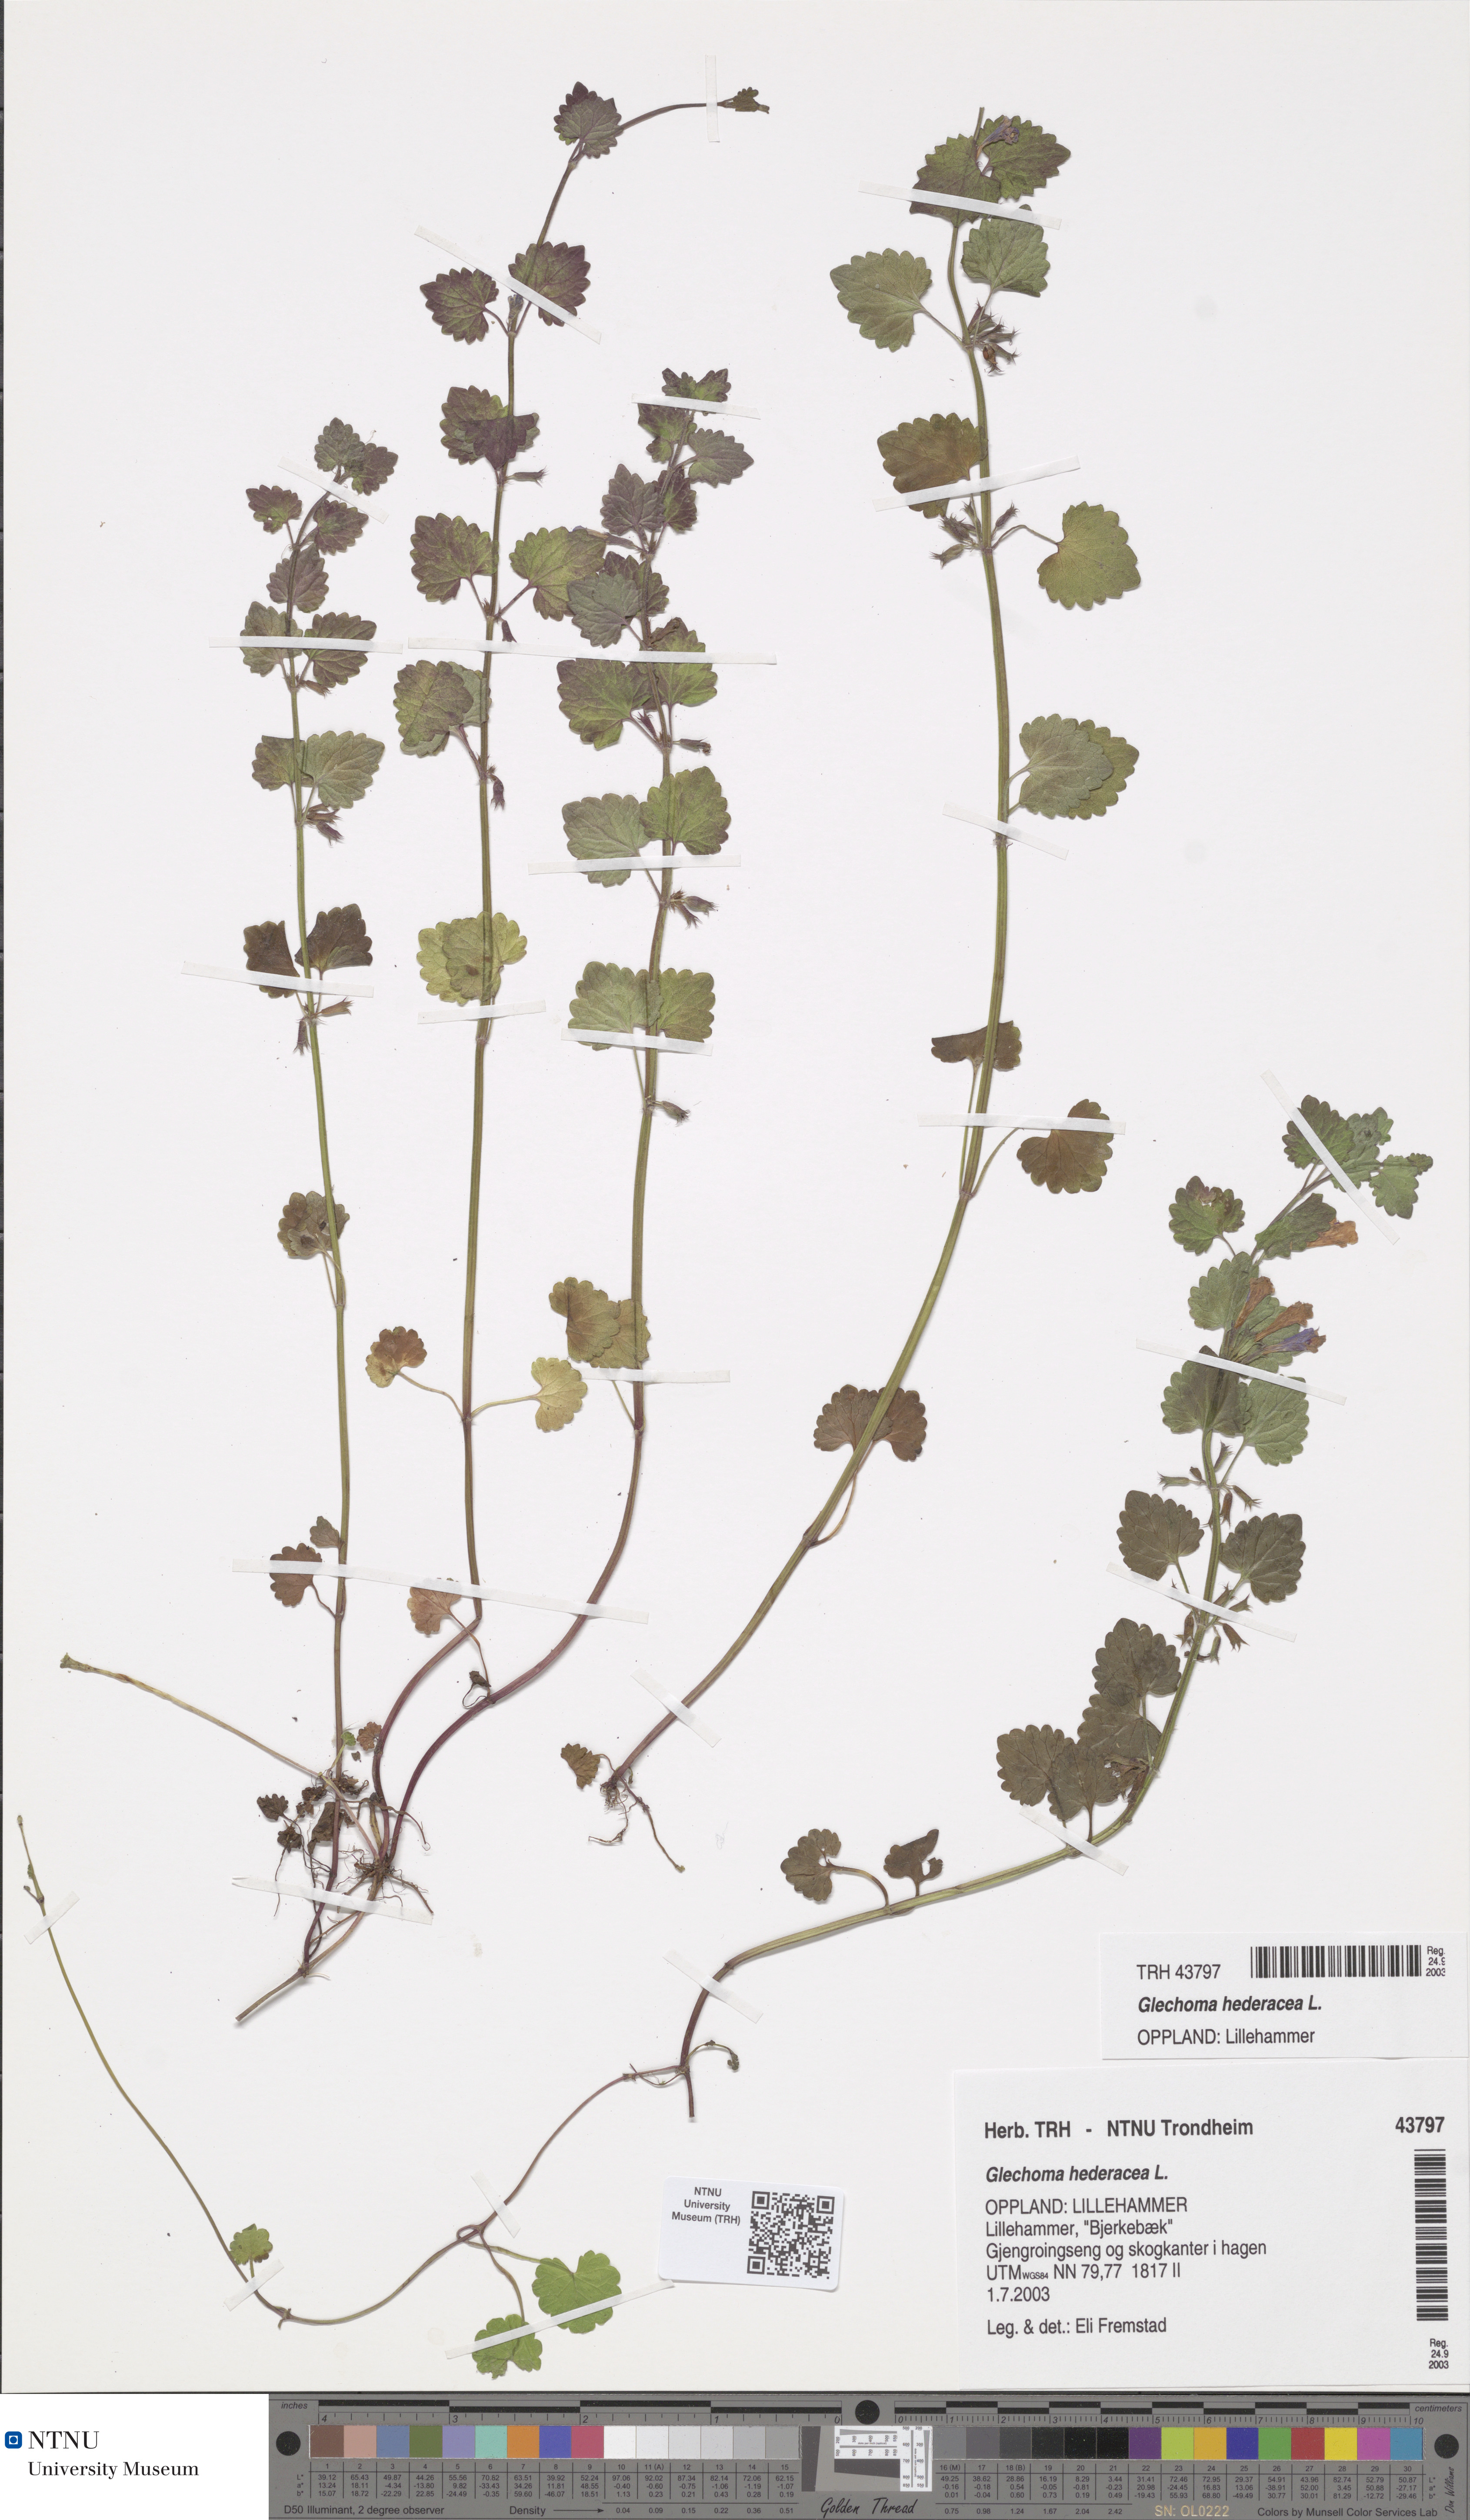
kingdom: Plantae
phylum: Tracheophyta
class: Magnoliopsida
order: Lamiales
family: Lamiaceae
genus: Glechoma
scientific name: Glechoma hederacea
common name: Ground ivy
